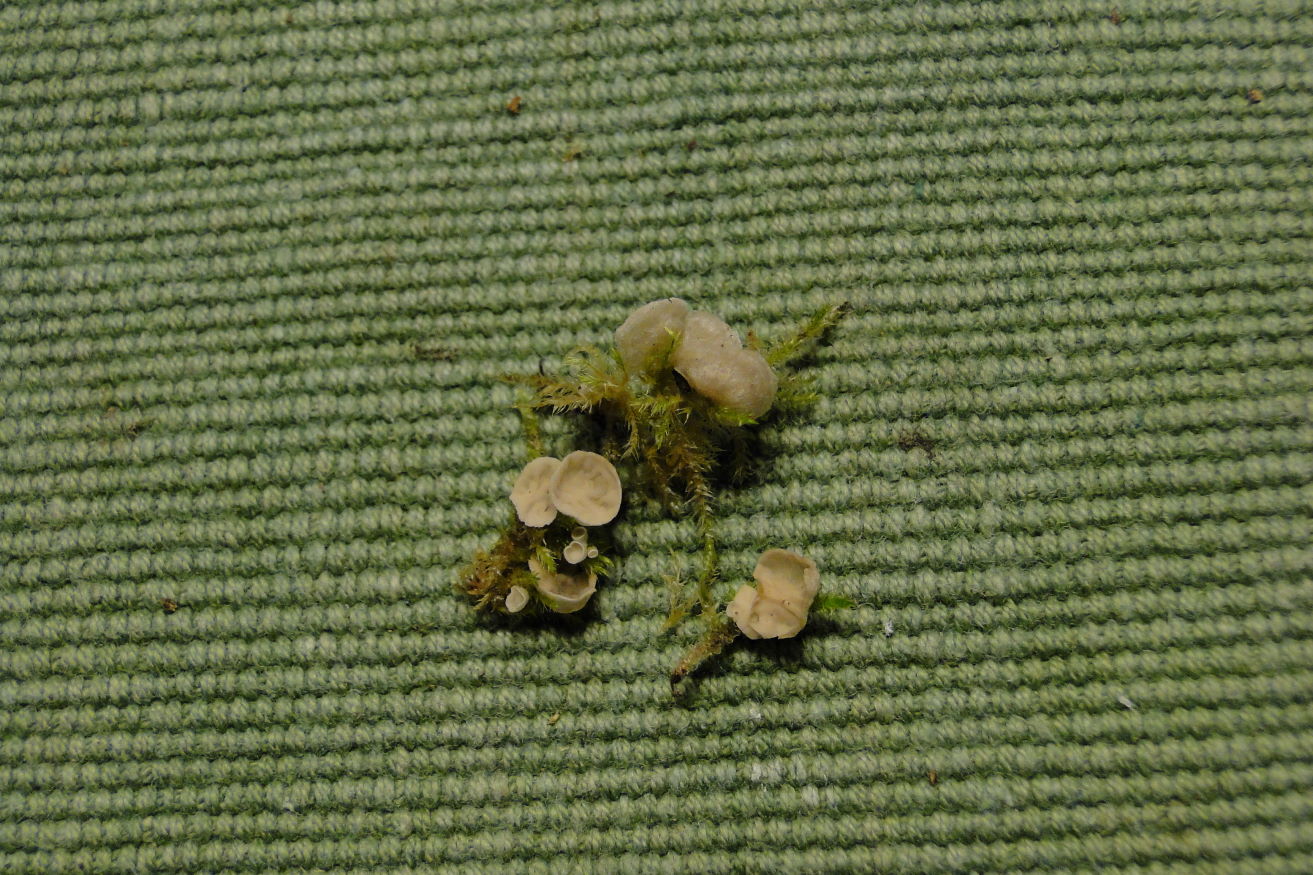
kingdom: Fungi
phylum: Basidiomycota
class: Agaricomycetes
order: Agaricales
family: Hygrophoraceae
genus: Arrhenia
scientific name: Arrhenia retiruga
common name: lille fontænehat
